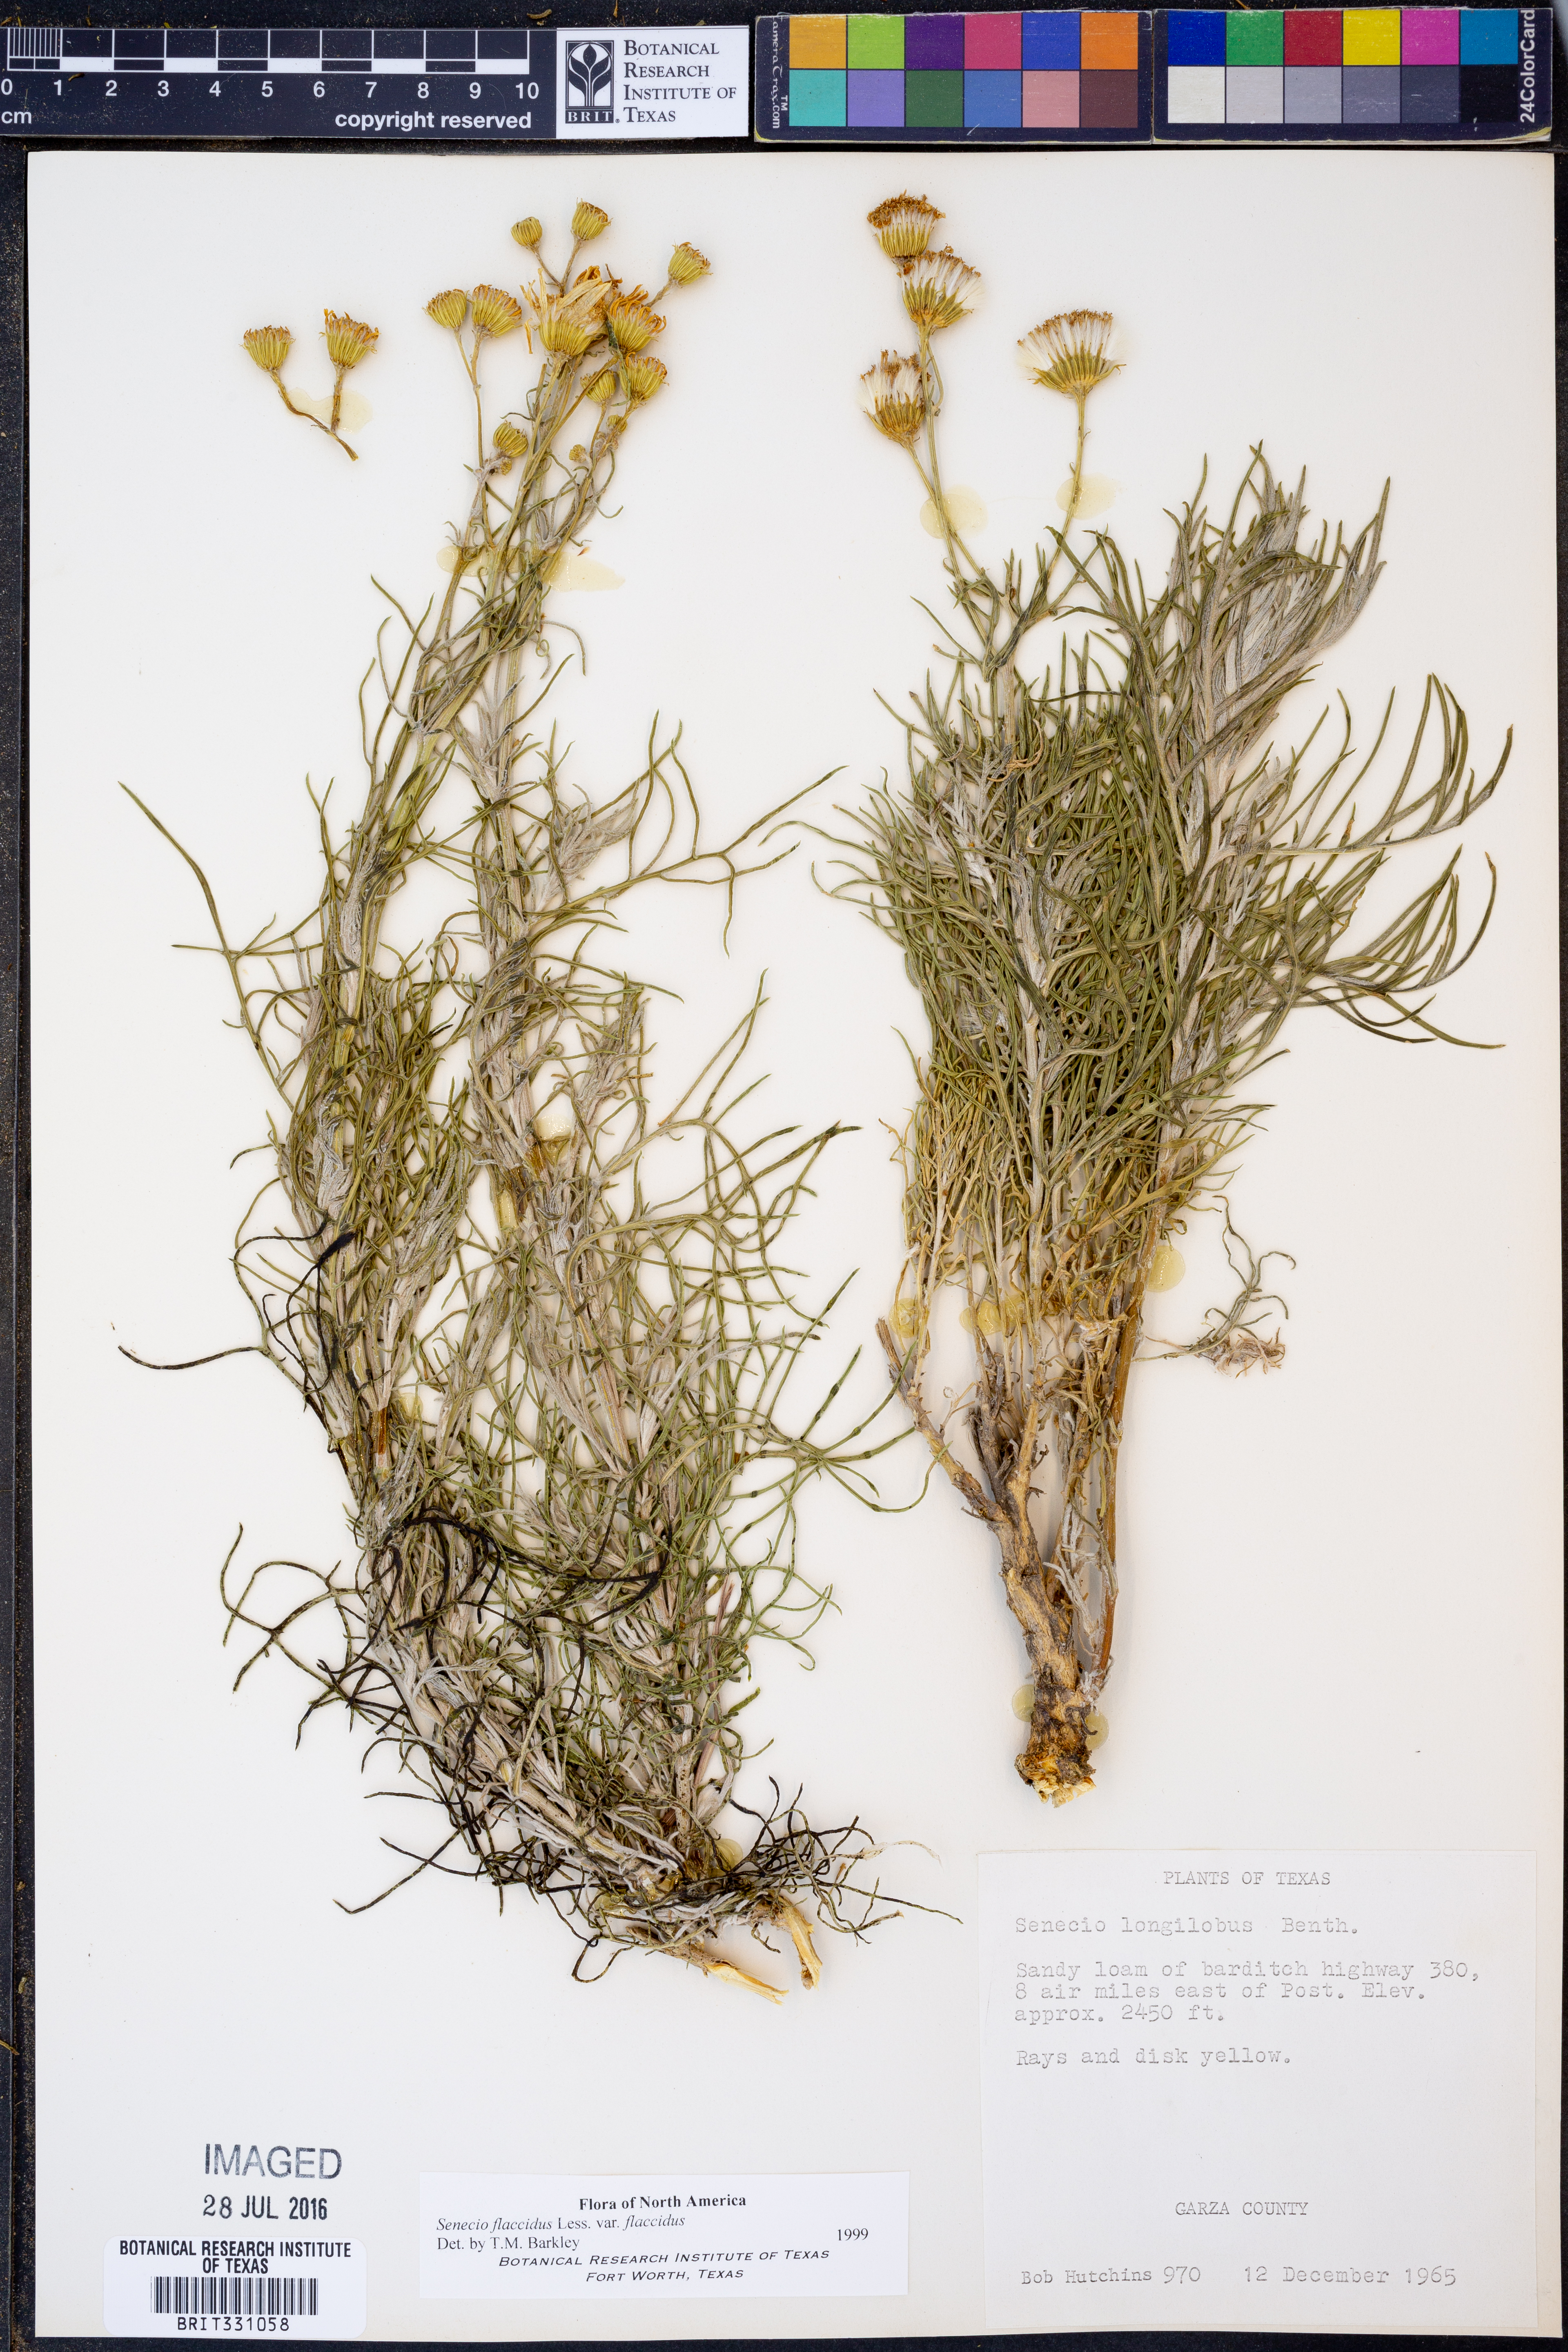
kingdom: Plantae
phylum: Tracheophyta
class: Magnoliopsida
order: Asterales
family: Asteraceae
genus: Senecio
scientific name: Senecio flaccidus
